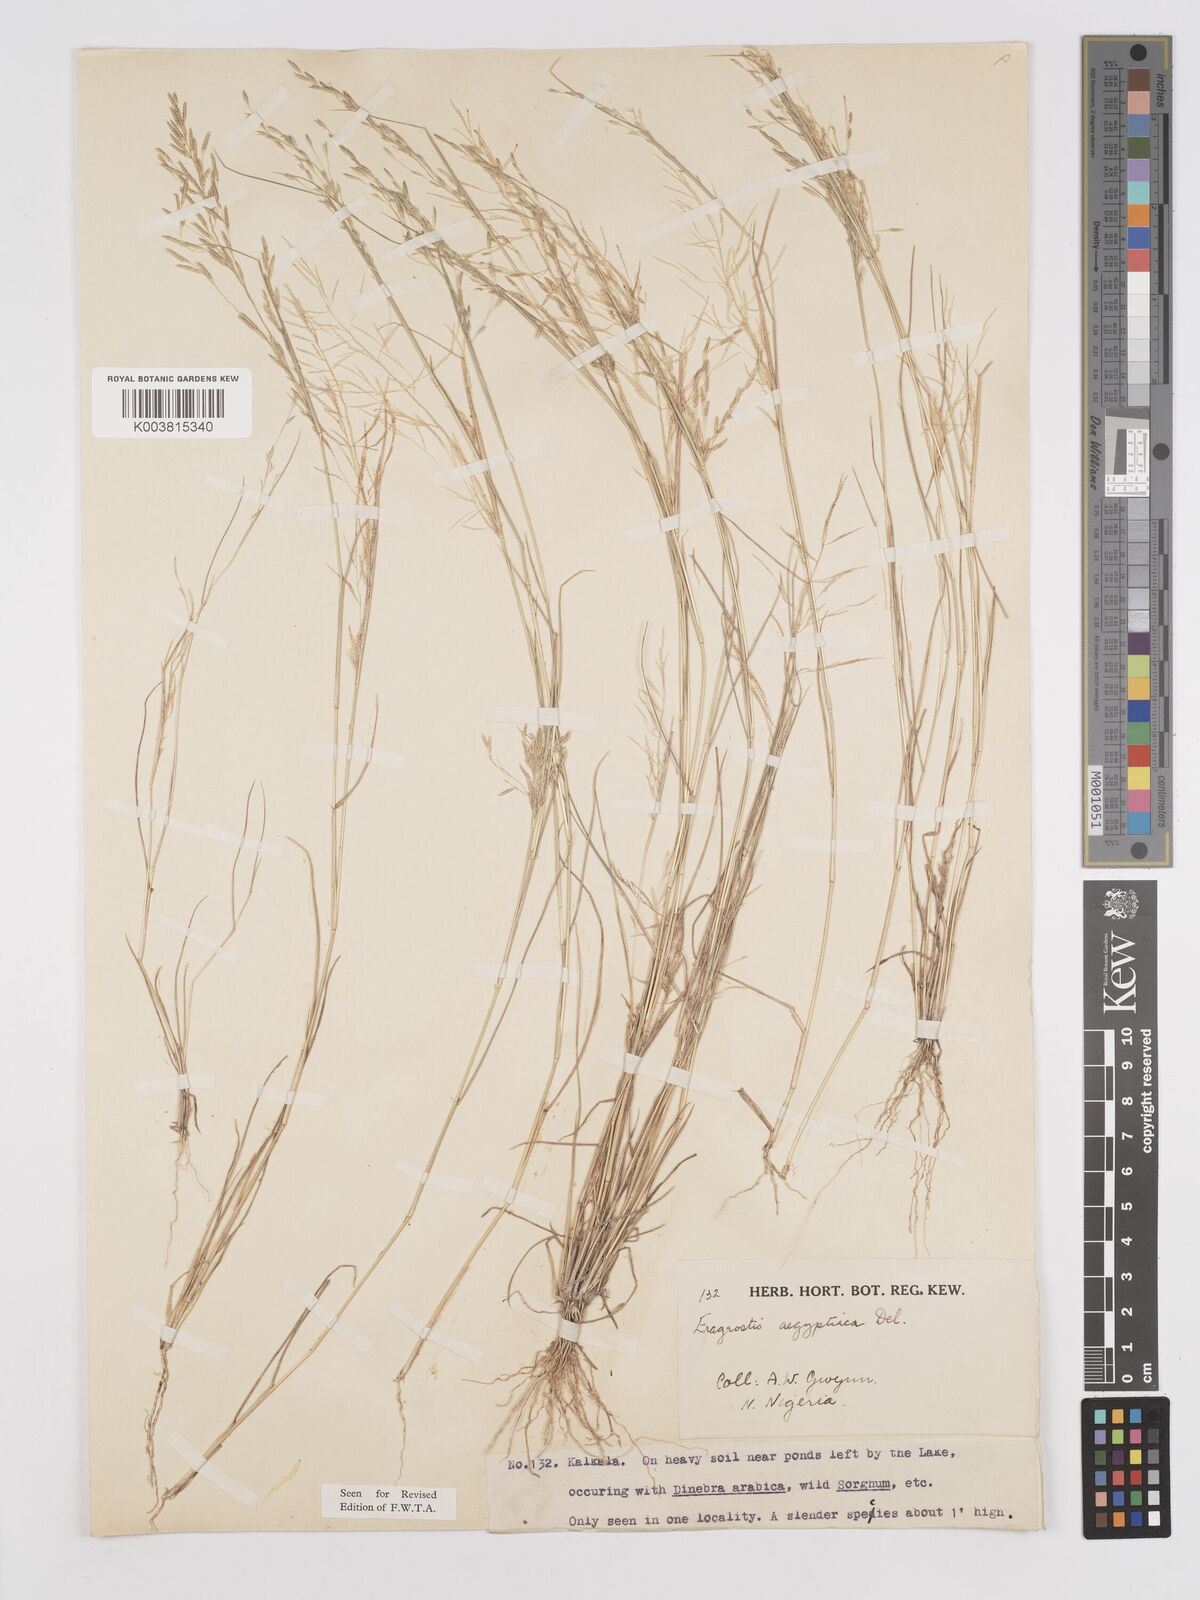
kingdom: Plantae
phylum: Tracheophyta
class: Liliopsida
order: Poales
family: Poaceae
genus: Eragrostis
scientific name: Eragrostis aegyptiaca
